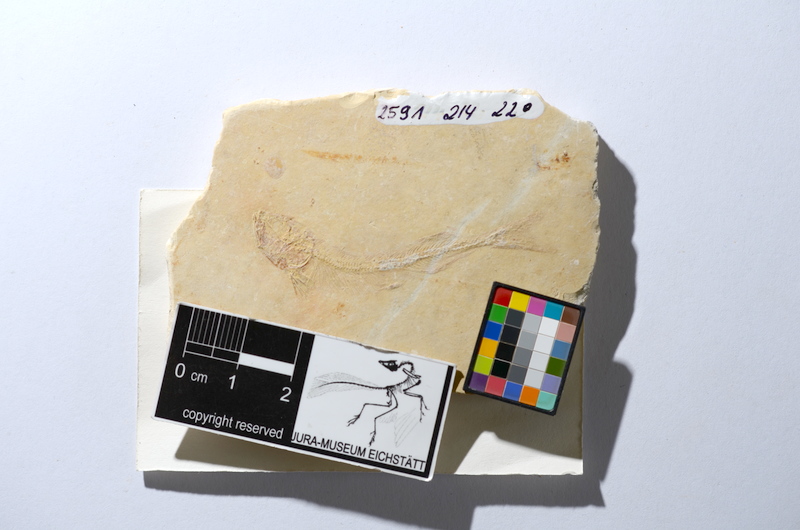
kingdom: Animalia
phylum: Chordata
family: Allothrissopidae
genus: Allothrissops
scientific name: Allothrissops mesogaster
